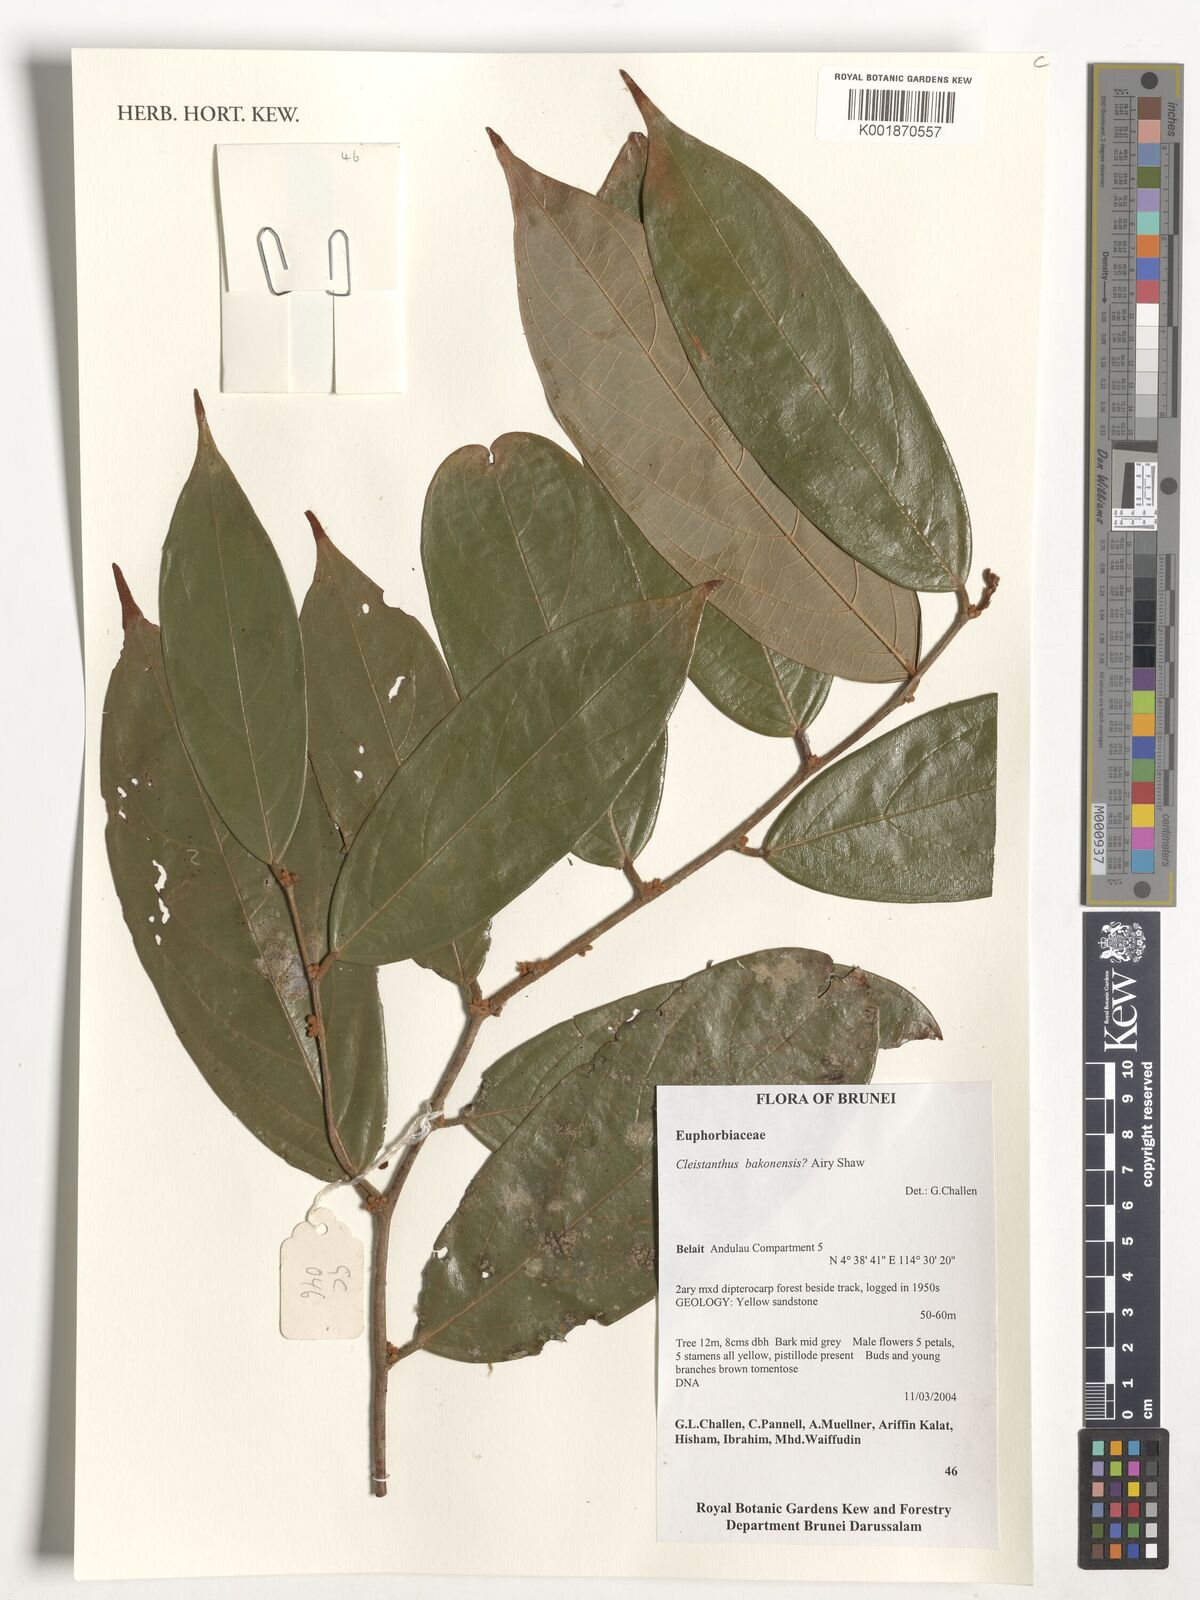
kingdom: Plantae
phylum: Tracheophyta
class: Magnoliopsida
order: Malpighiales
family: Phyllanthaceae
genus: Cleistanthus
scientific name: Cleistanthus bakonensis
